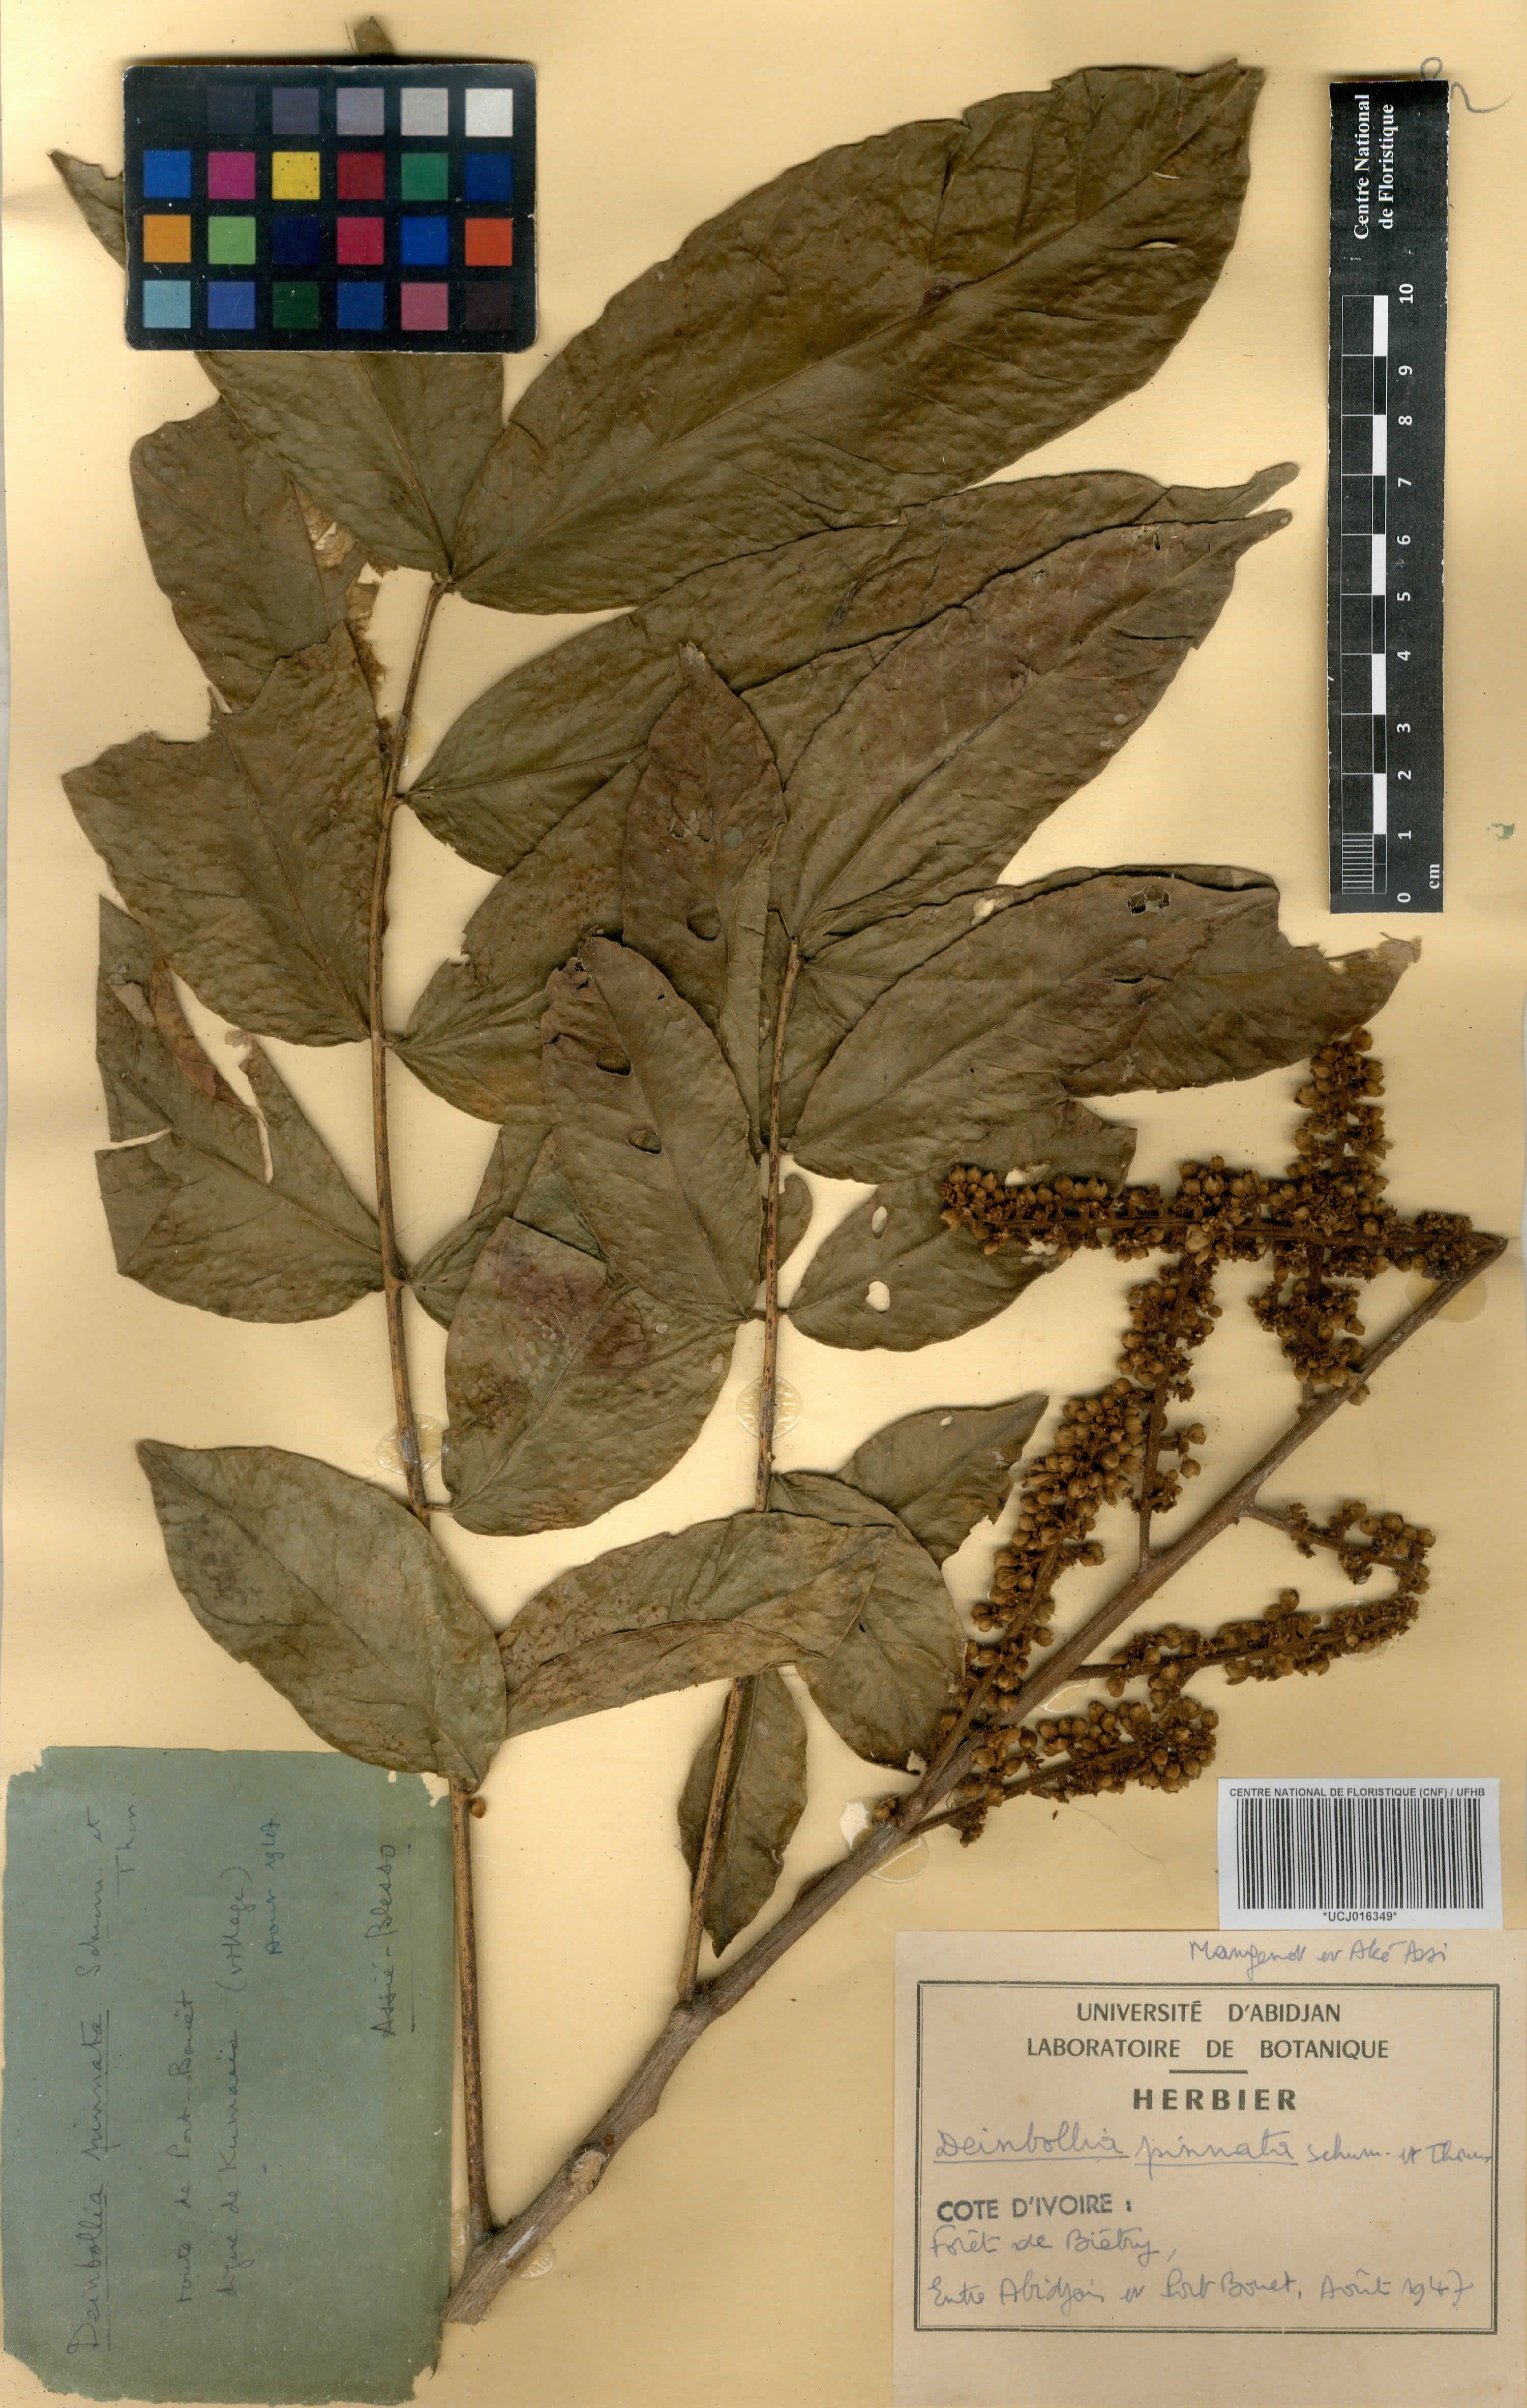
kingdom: Plantae
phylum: Tracheophyta
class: Magnoliopsida
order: Sapindales
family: Sapindaceae
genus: Deinbollia
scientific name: Deinbollia pinnata
